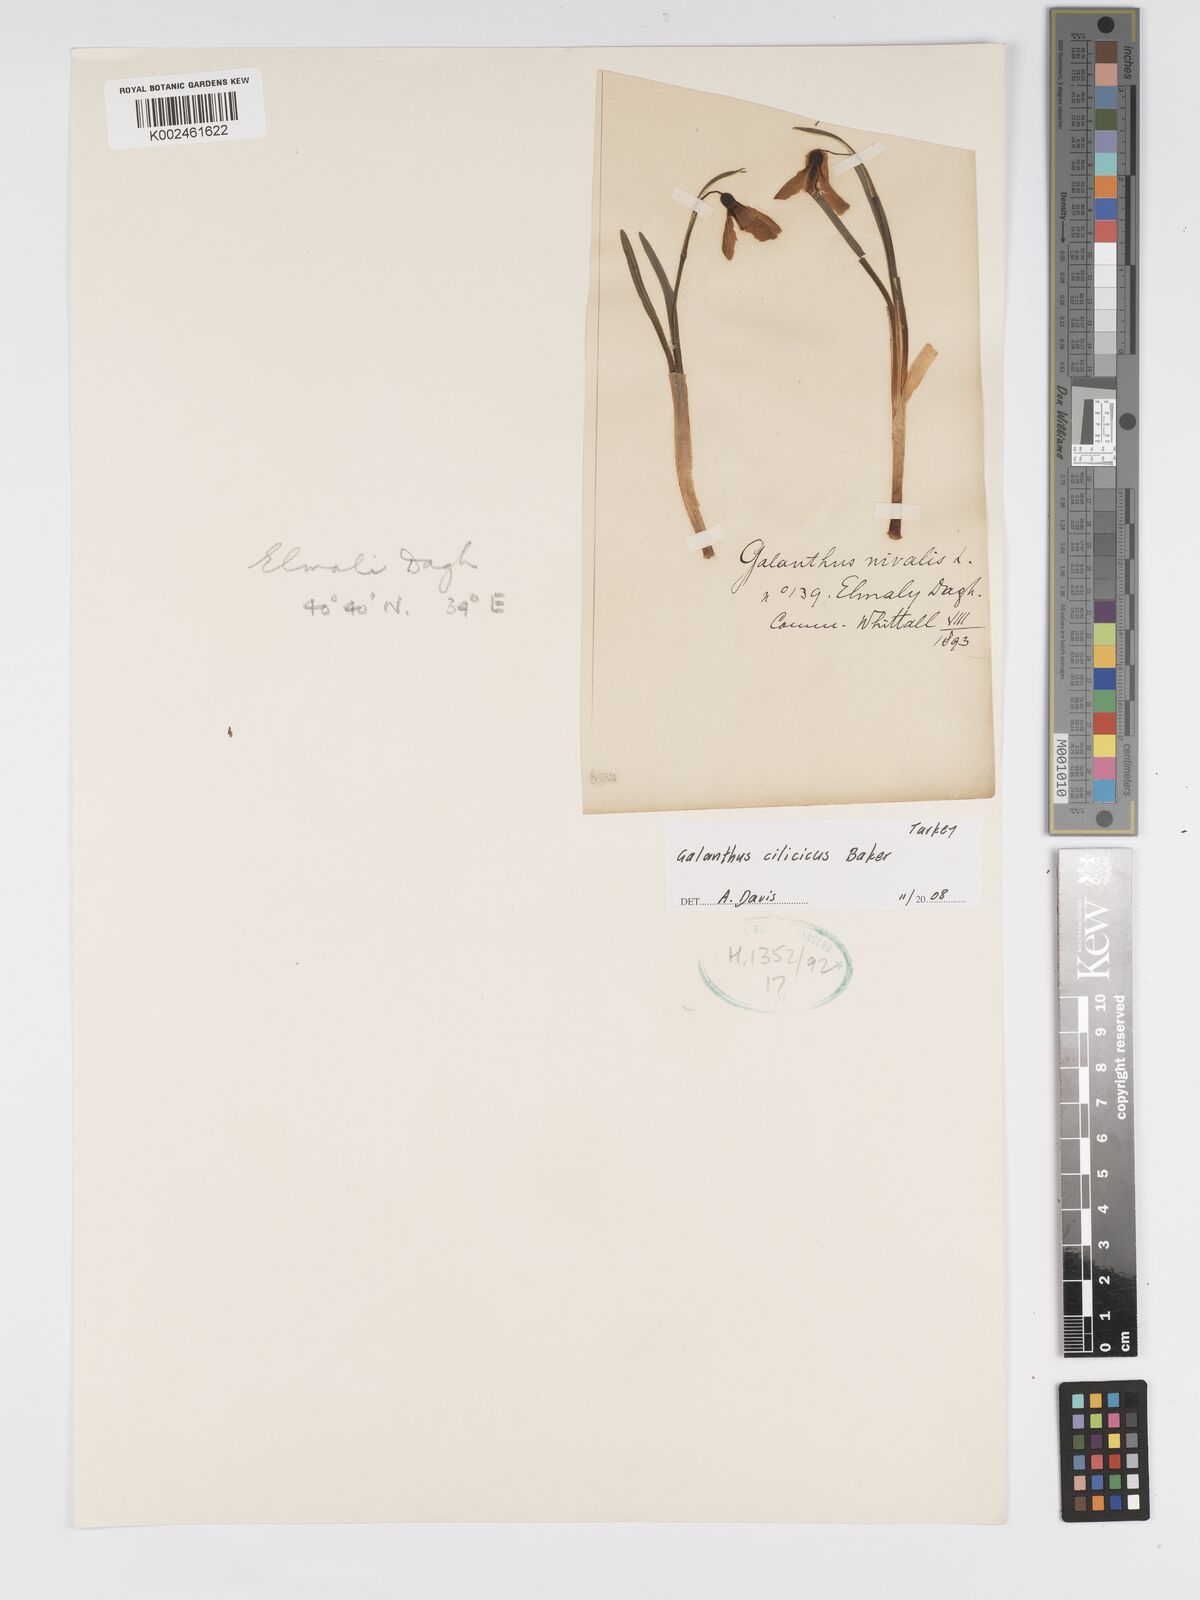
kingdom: Plantae
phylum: Tracheophyta
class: Liliopsida
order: Asparagales
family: Amaryllidaceae
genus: Galanthus
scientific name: Galanthus cilicicus
